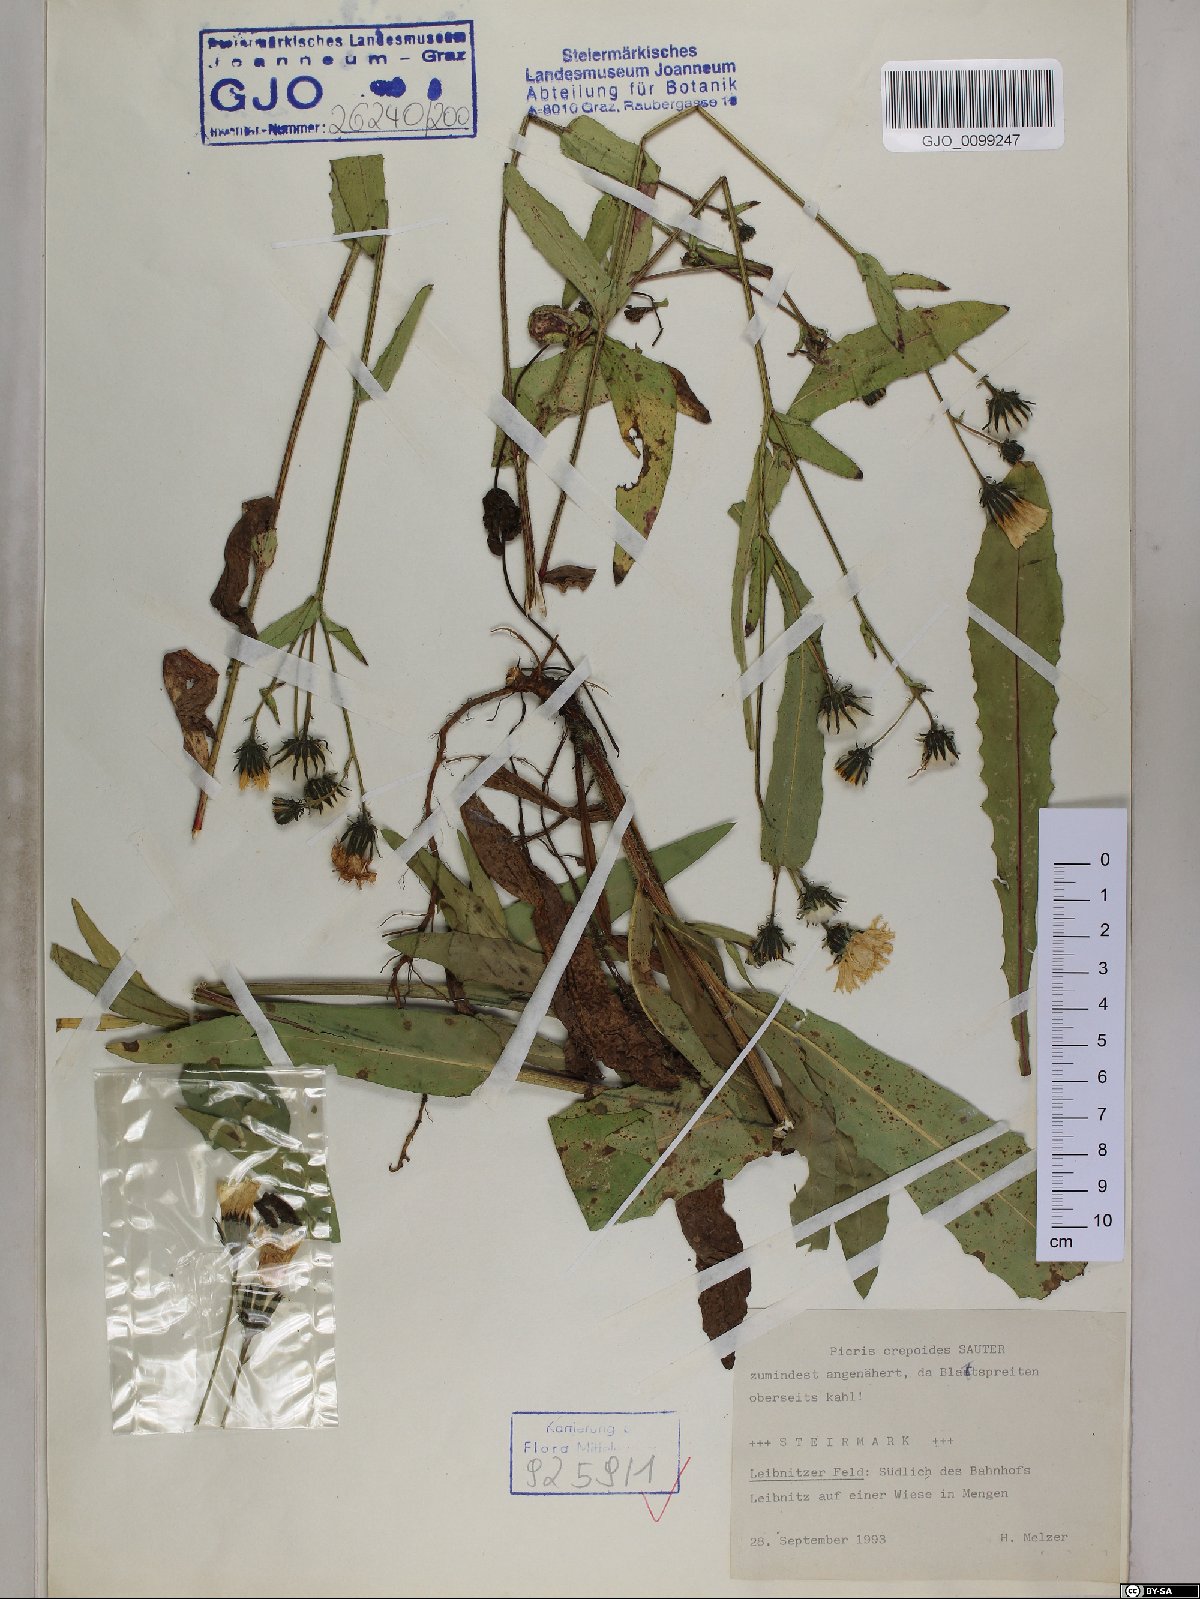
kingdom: Plantae
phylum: Tracheophyta
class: Magnoliopsida
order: Asterales
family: Asteraceae
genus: Picris
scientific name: Picris hieracioides
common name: Hawkweed oxtongue
